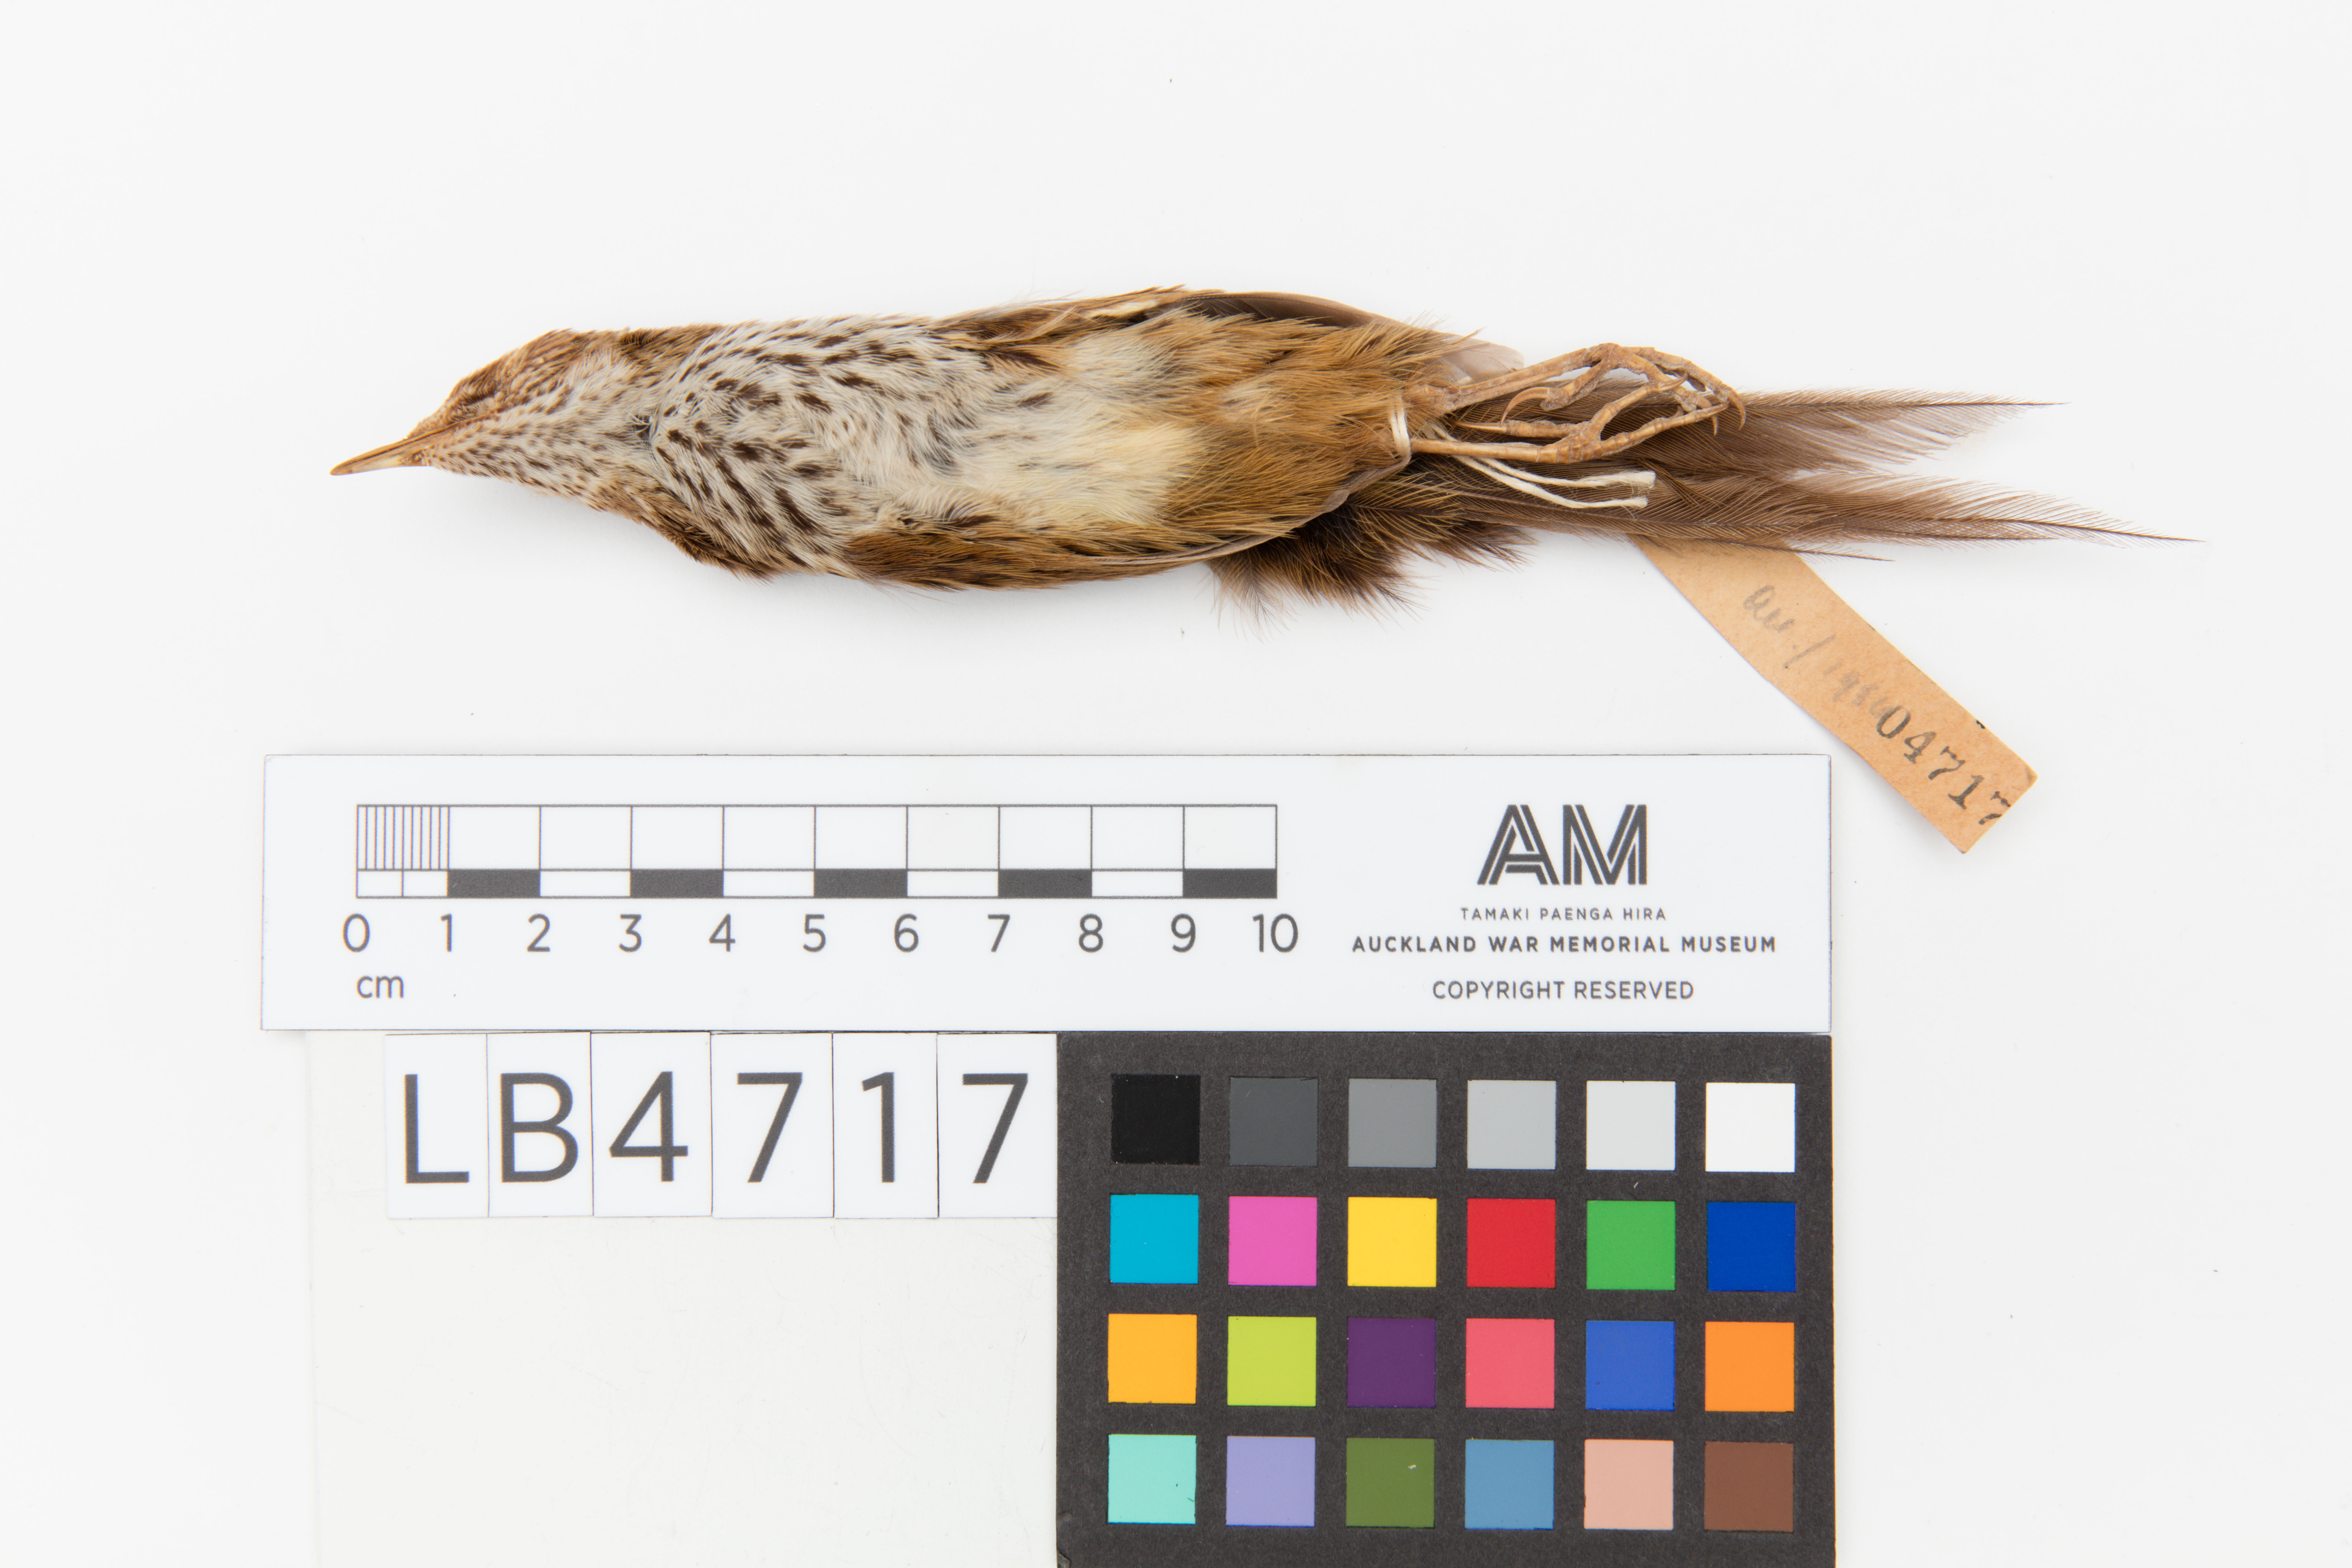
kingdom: Animalia
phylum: Chordata
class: Aves
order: Passeriformes
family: Locustellidae
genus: Megalurus
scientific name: Megalurus punctatus
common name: New zealand fernbird
